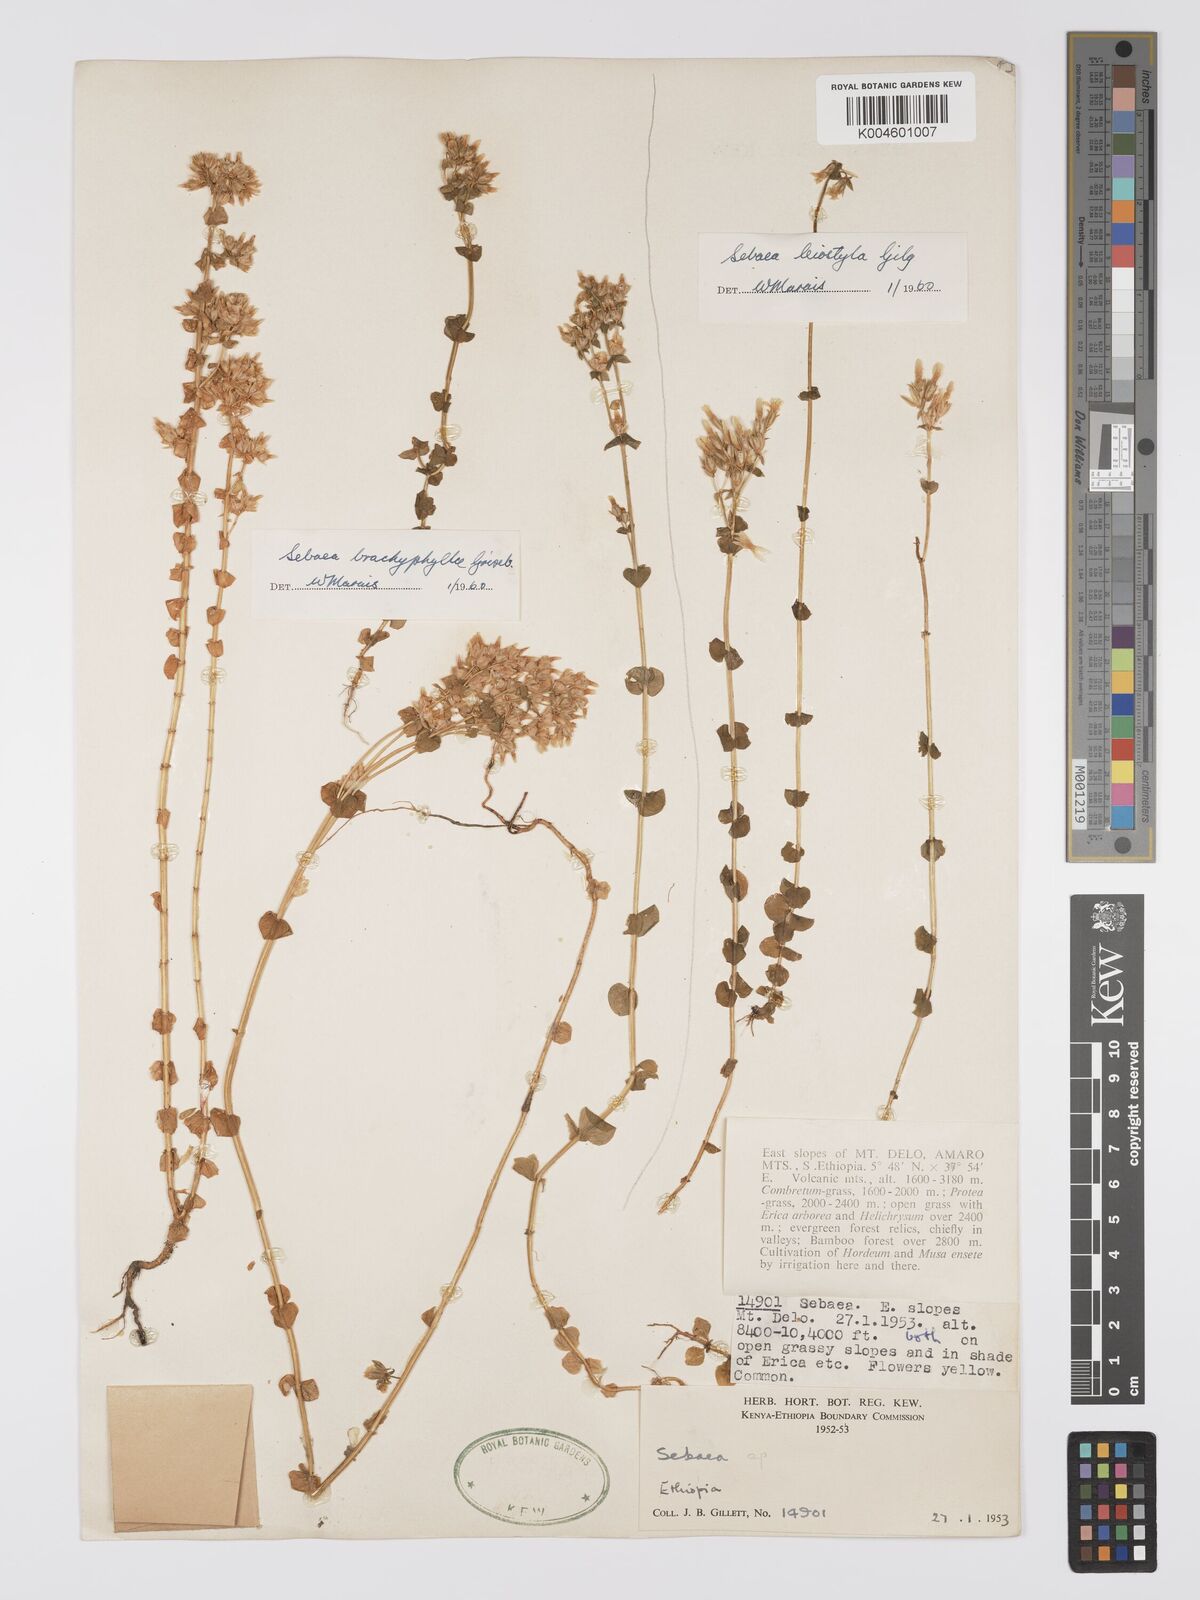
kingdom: Plantae
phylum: Tracheophyta
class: Magnoliopsida
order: Gentianales
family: Gentianaceae
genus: Sebaea
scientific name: Sebaea brachyphylla
